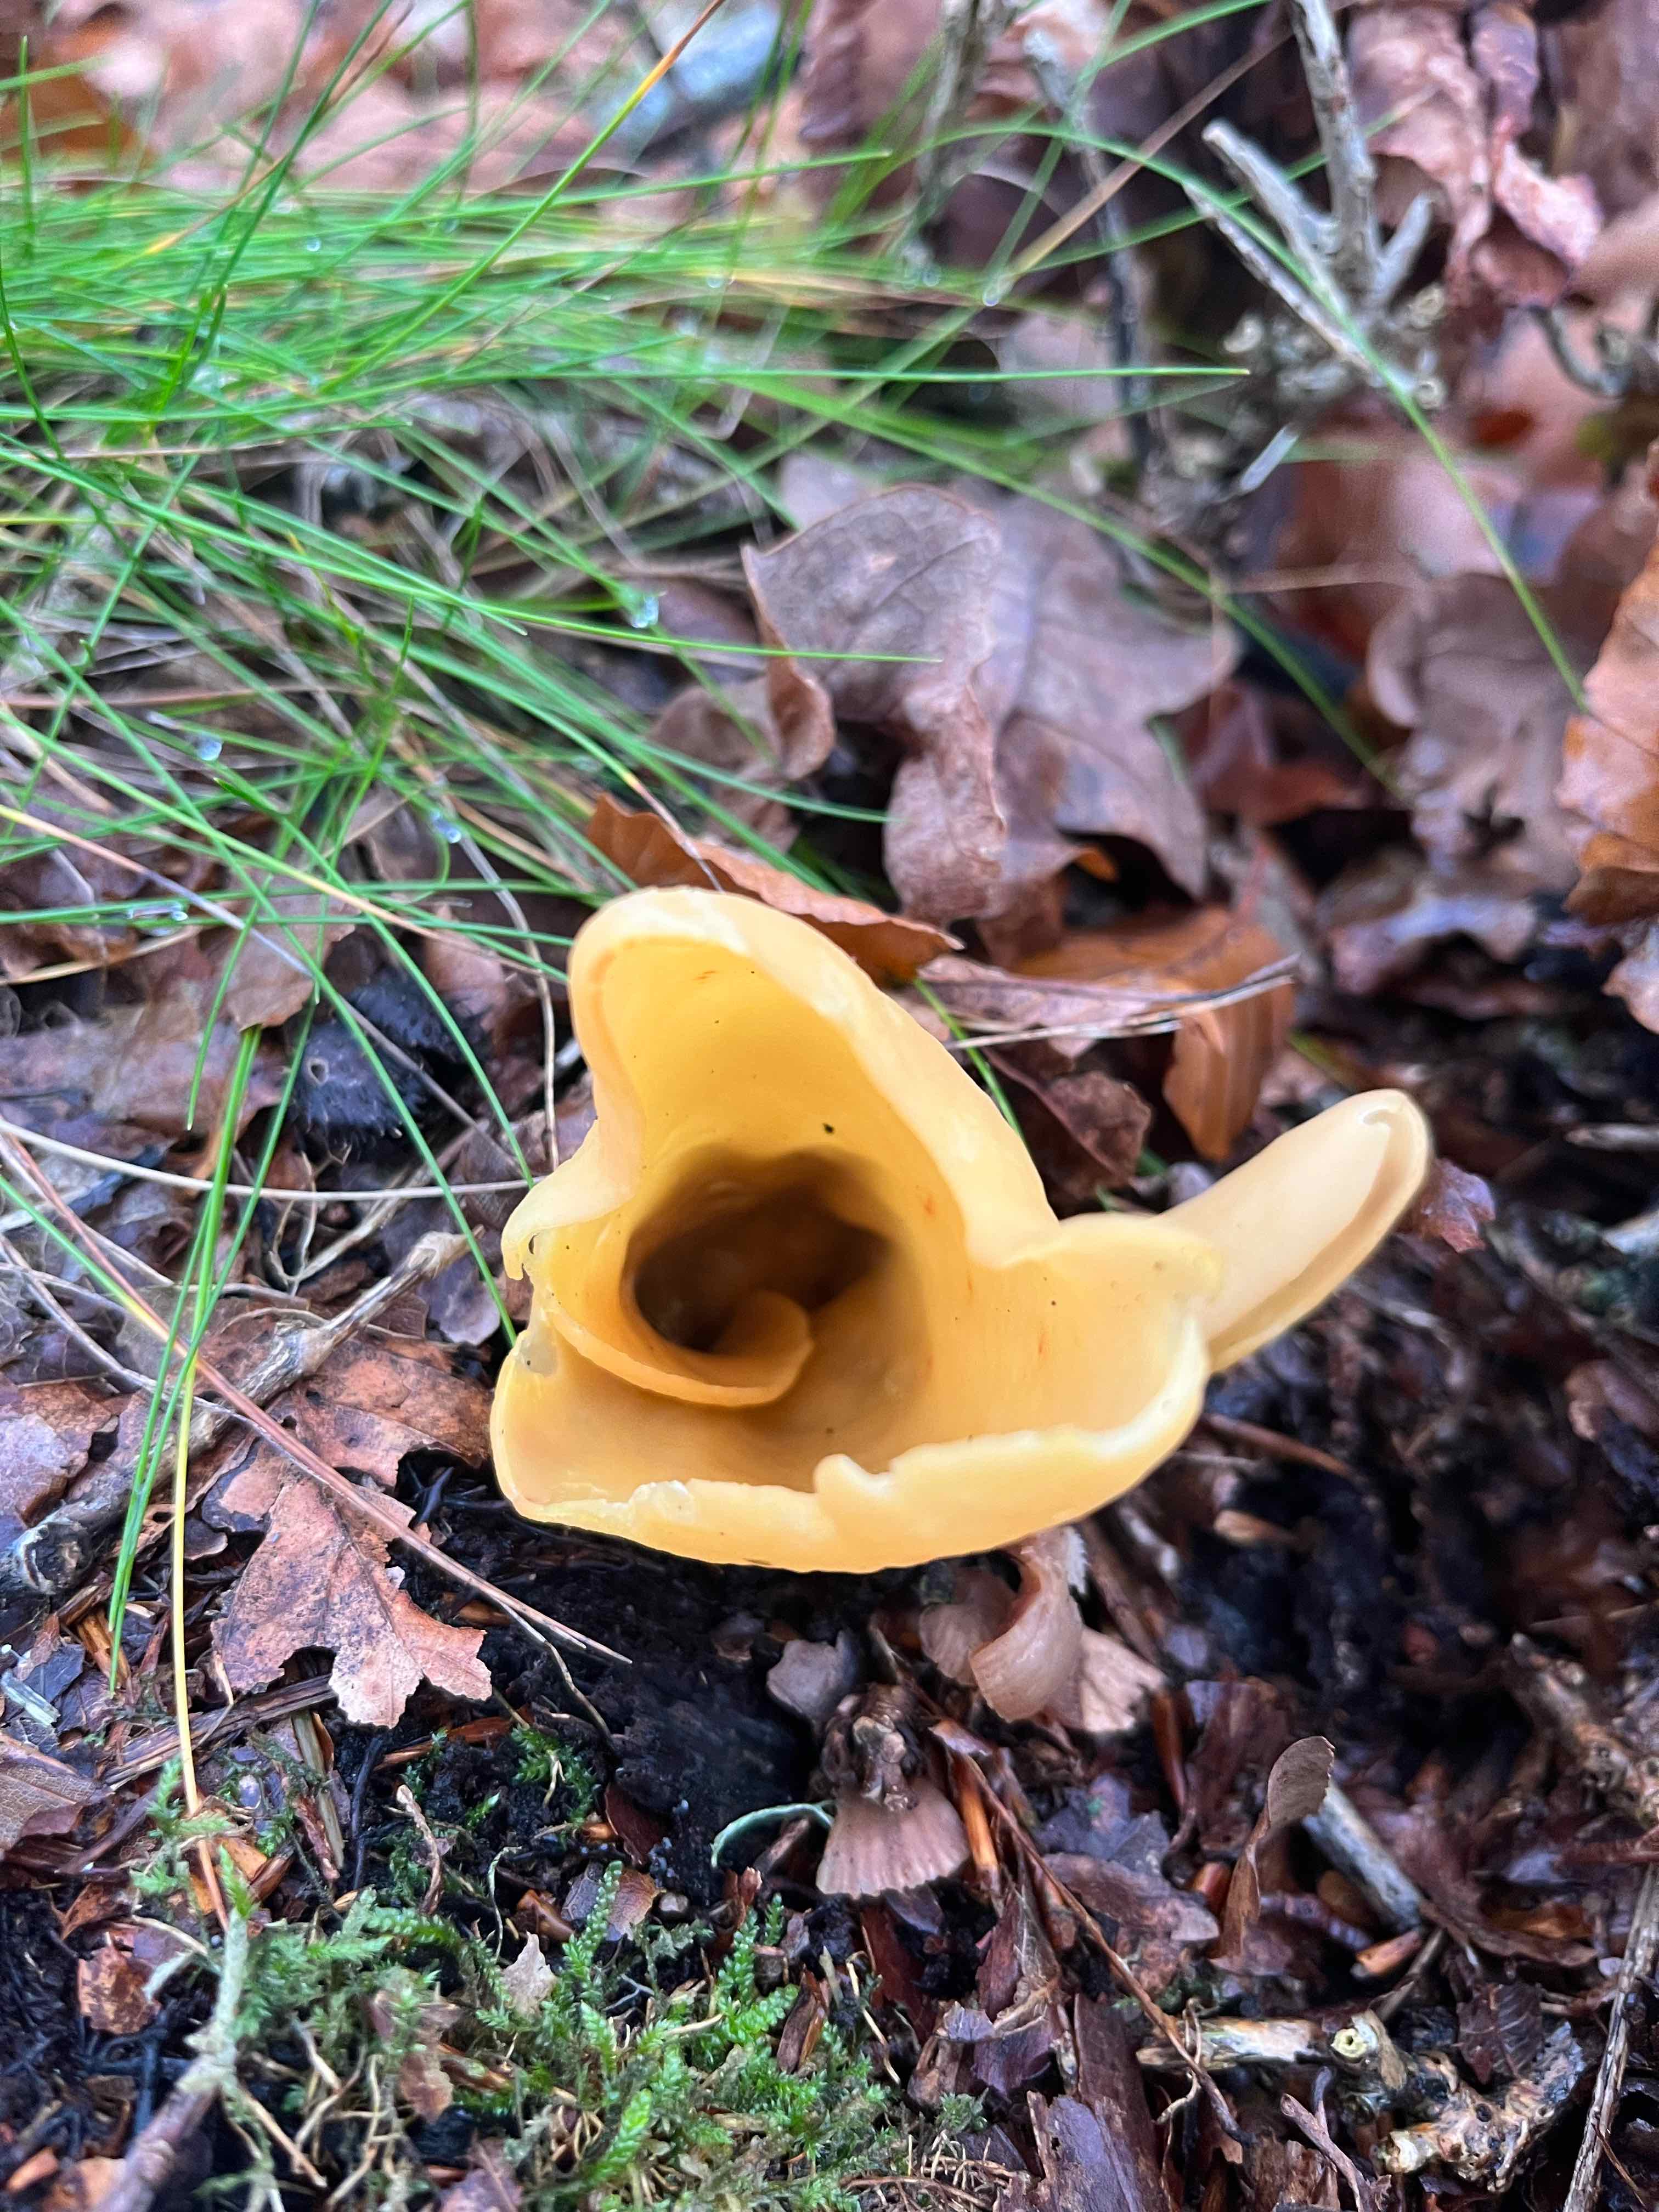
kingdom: Fungi
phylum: Ascomycota
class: Pezizomycetes
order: Pezizales
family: Otideaceae
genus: Otidea
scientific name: Otidea onotica
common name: æsel-ørebæger
